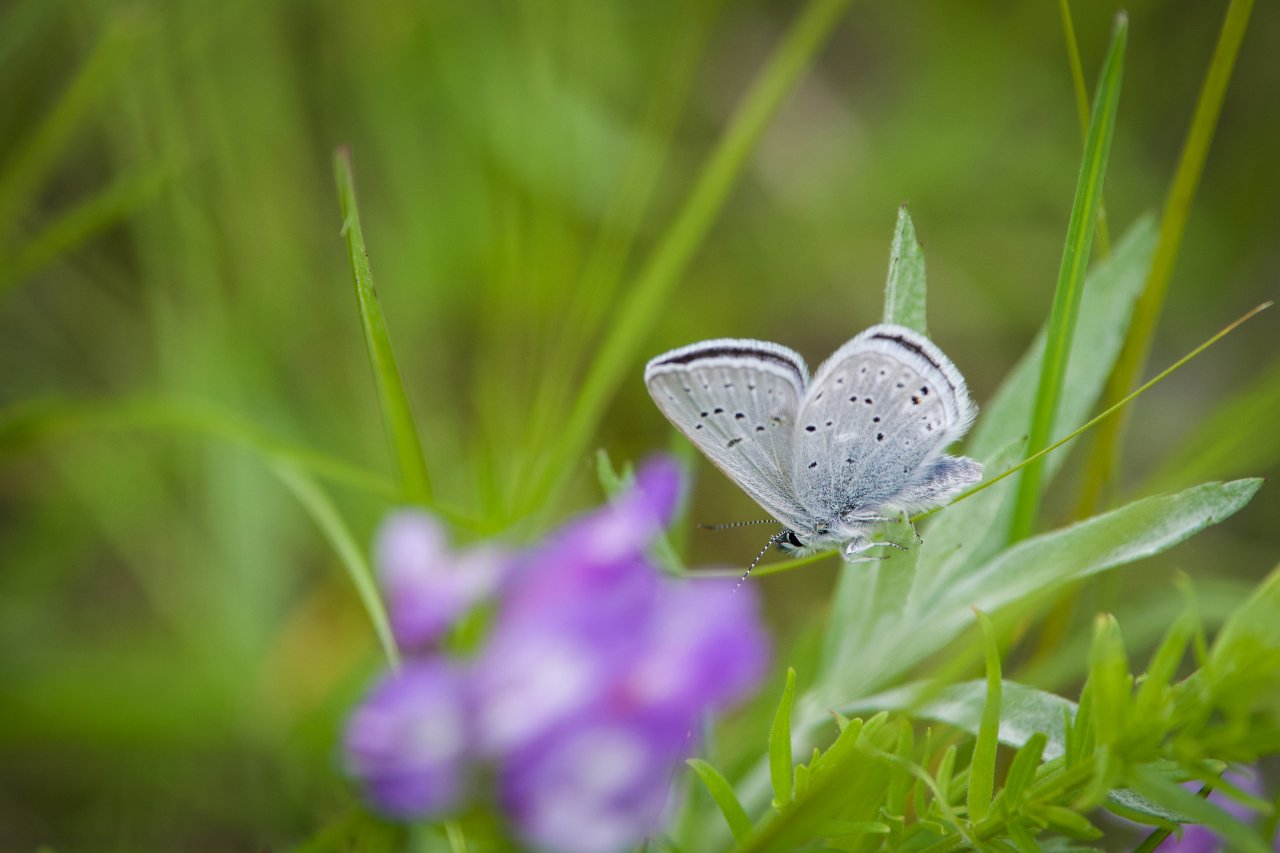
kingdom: Animalia
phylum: Arthropoda
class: Insecta
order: Lepidoptera
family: Lycaenidae
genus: Plebejus
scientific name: Plebejus saepiolus
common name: Greenish Blue
